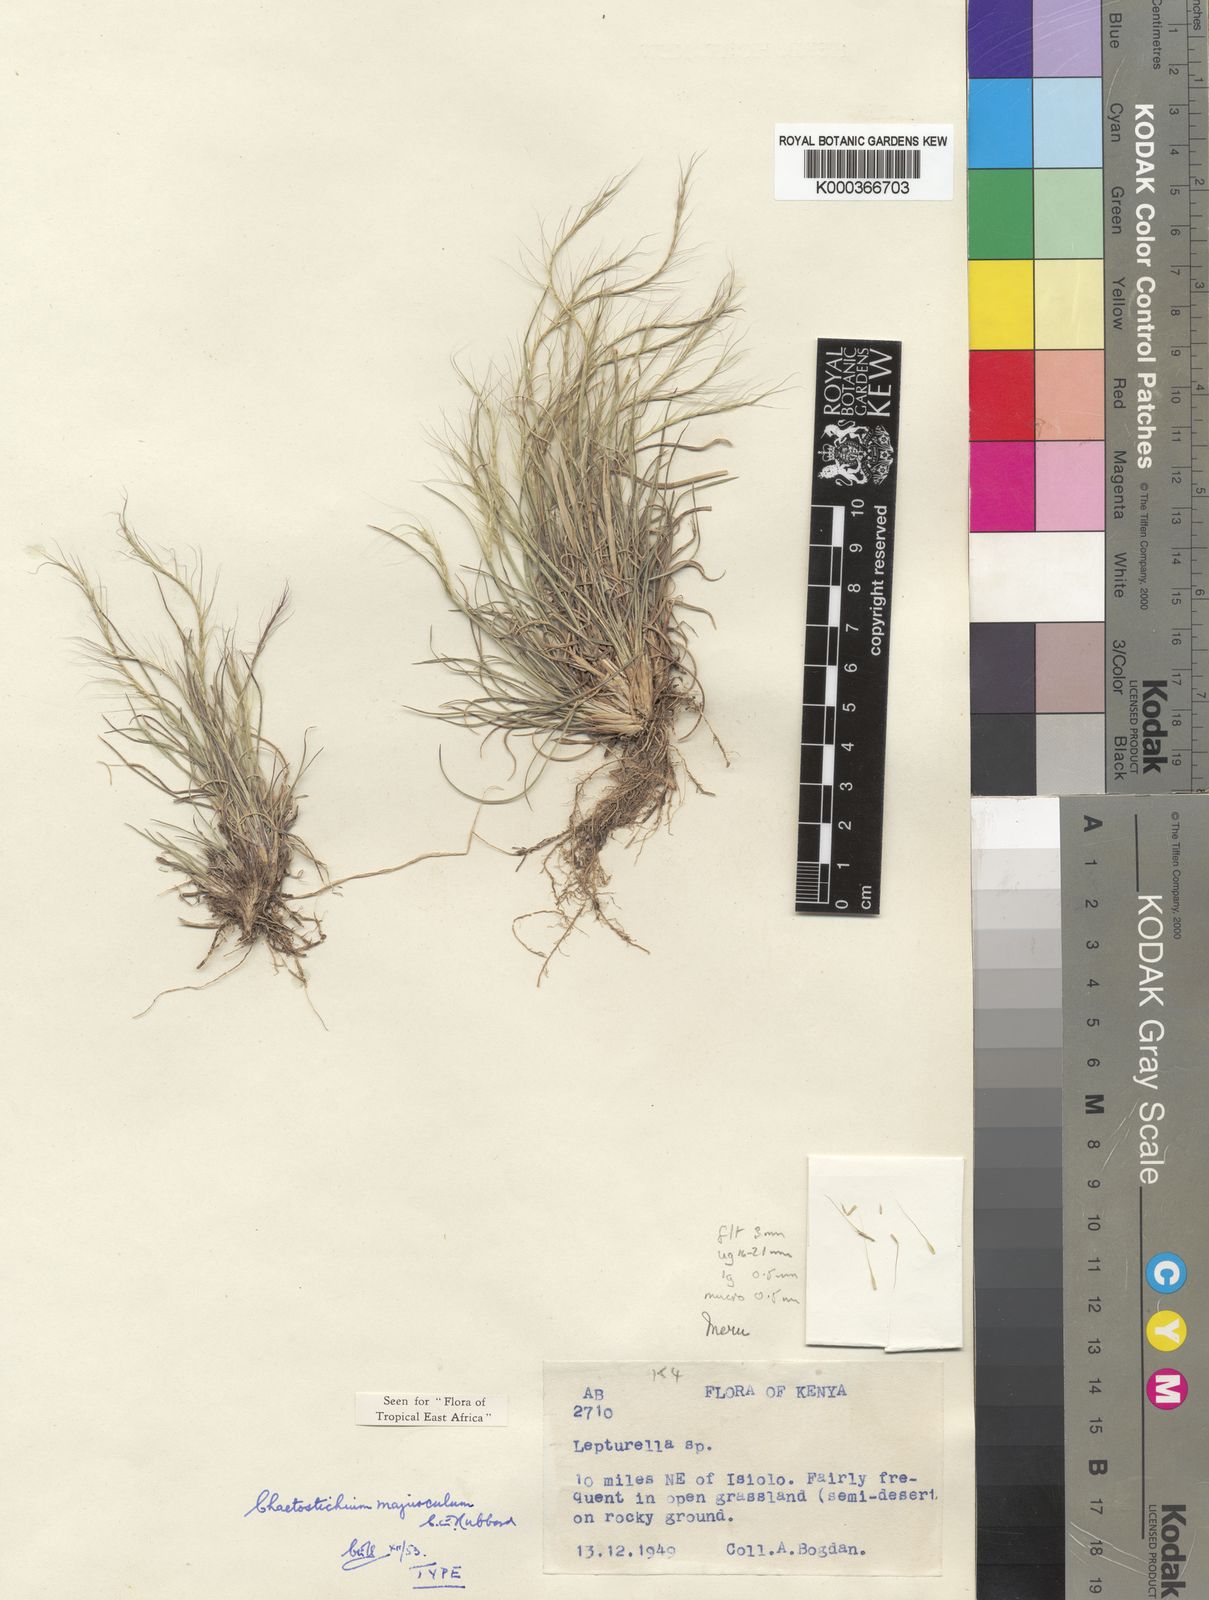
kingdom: Plantae
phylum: Tracheophyta
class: Liliopsida
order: Poales
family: Poaceae
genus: Oropetium
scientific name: Oropetium minimum
